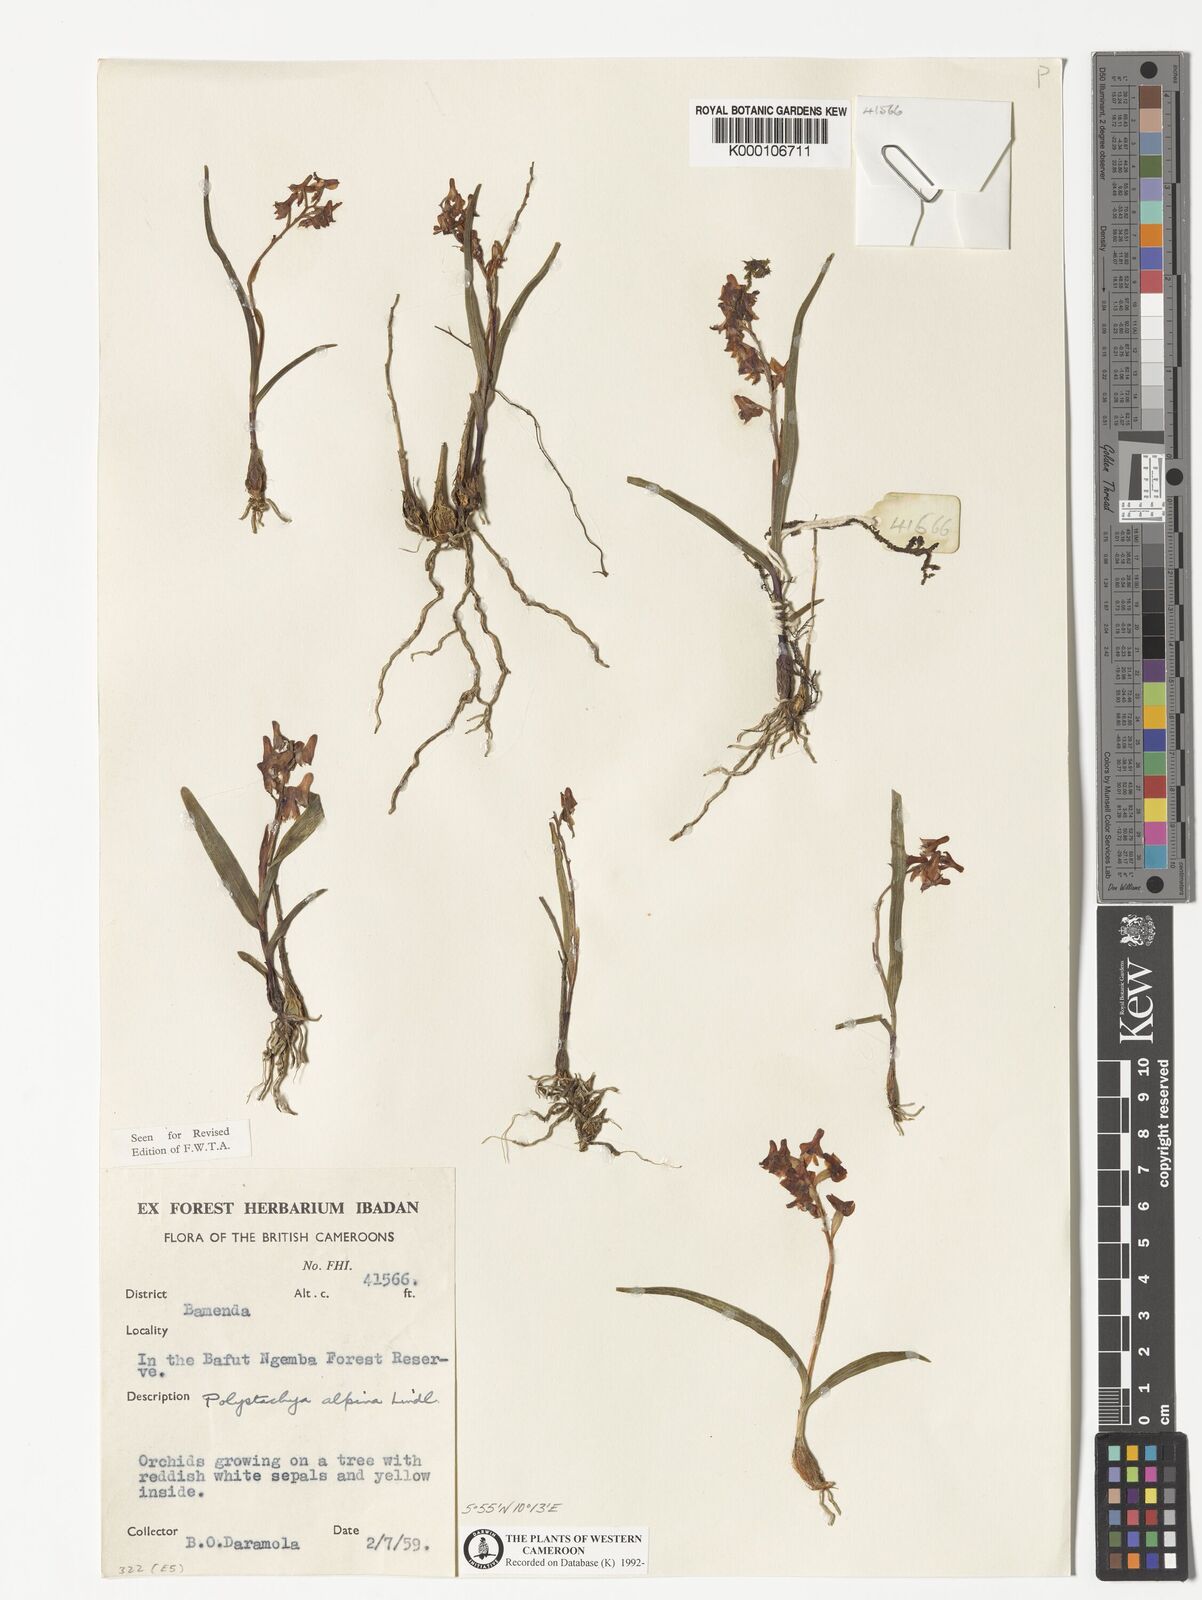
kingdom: Plantae
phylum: Tracheophyta
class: Liliopsida
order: Asparagales
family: Orchidaceae
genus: Polystachya
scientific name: Polystachya alpina
